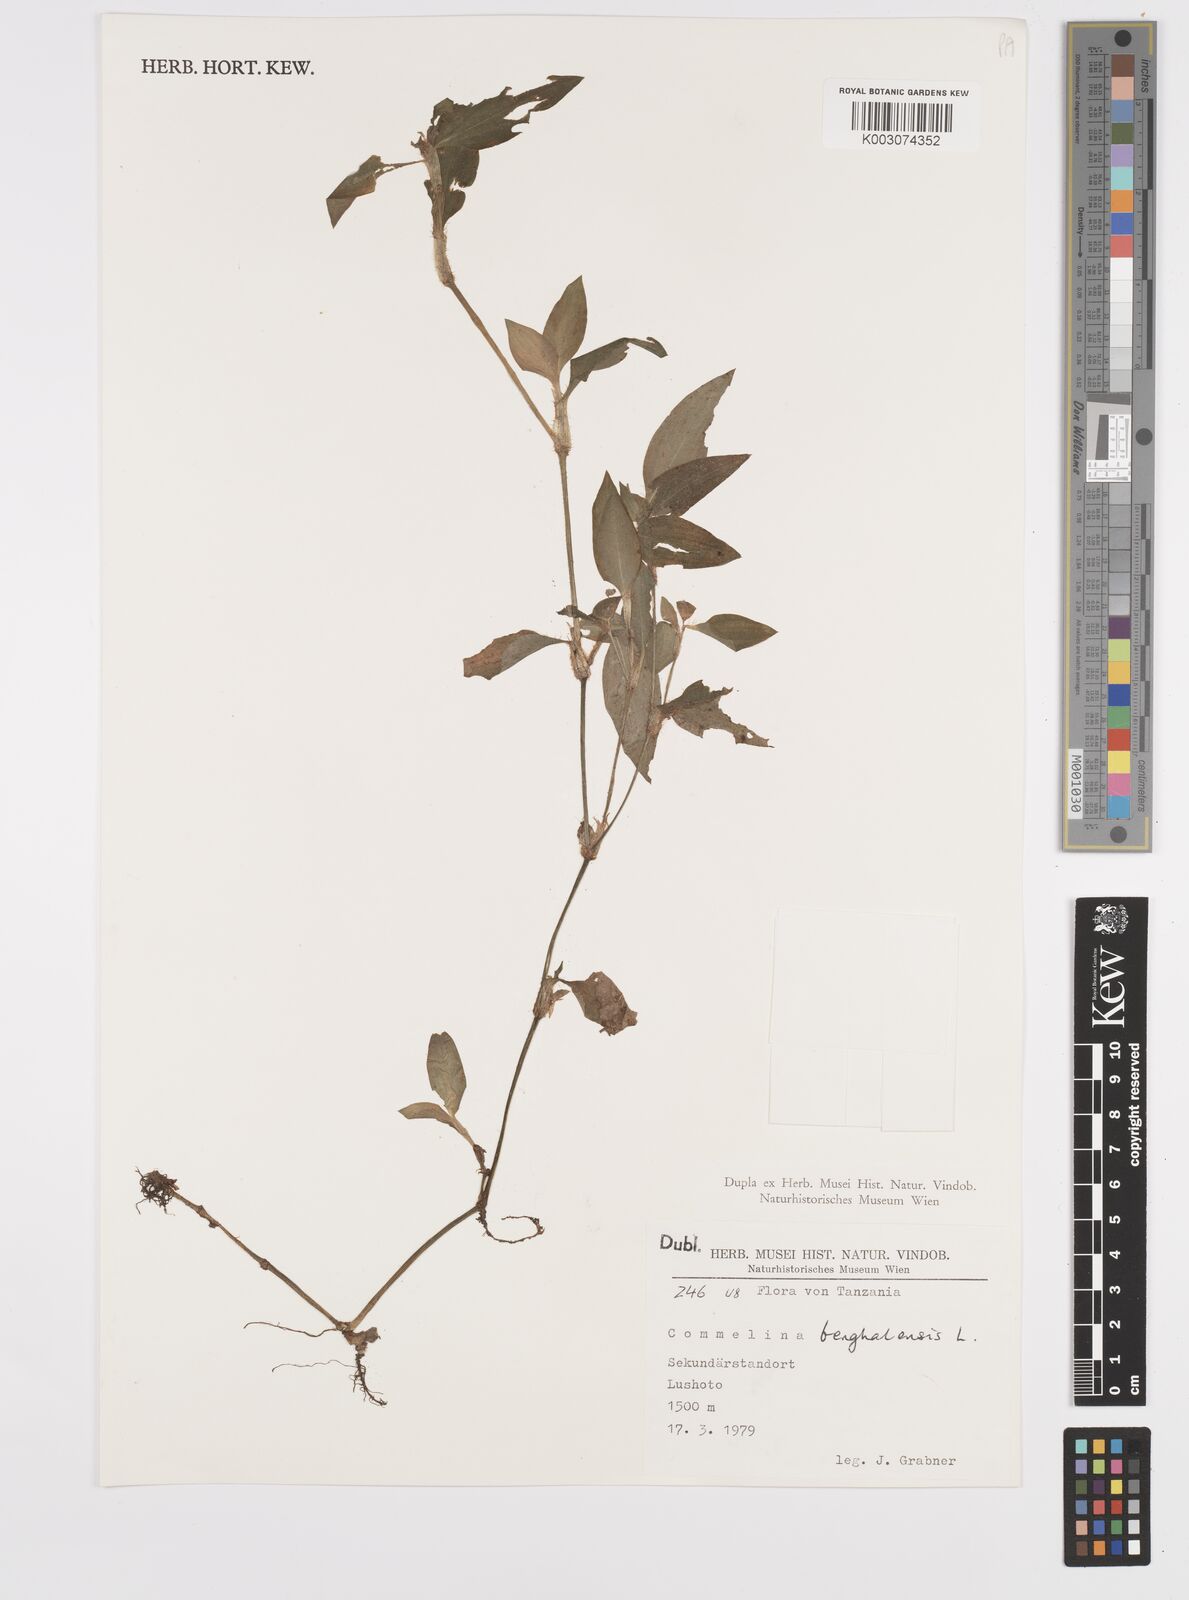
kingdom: Plantae
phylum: Tracheophyta
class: Liliopsida
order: Commelinales
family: Commelinaceae
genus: Commelina
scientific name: Commelina benghalensis
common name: Jio
